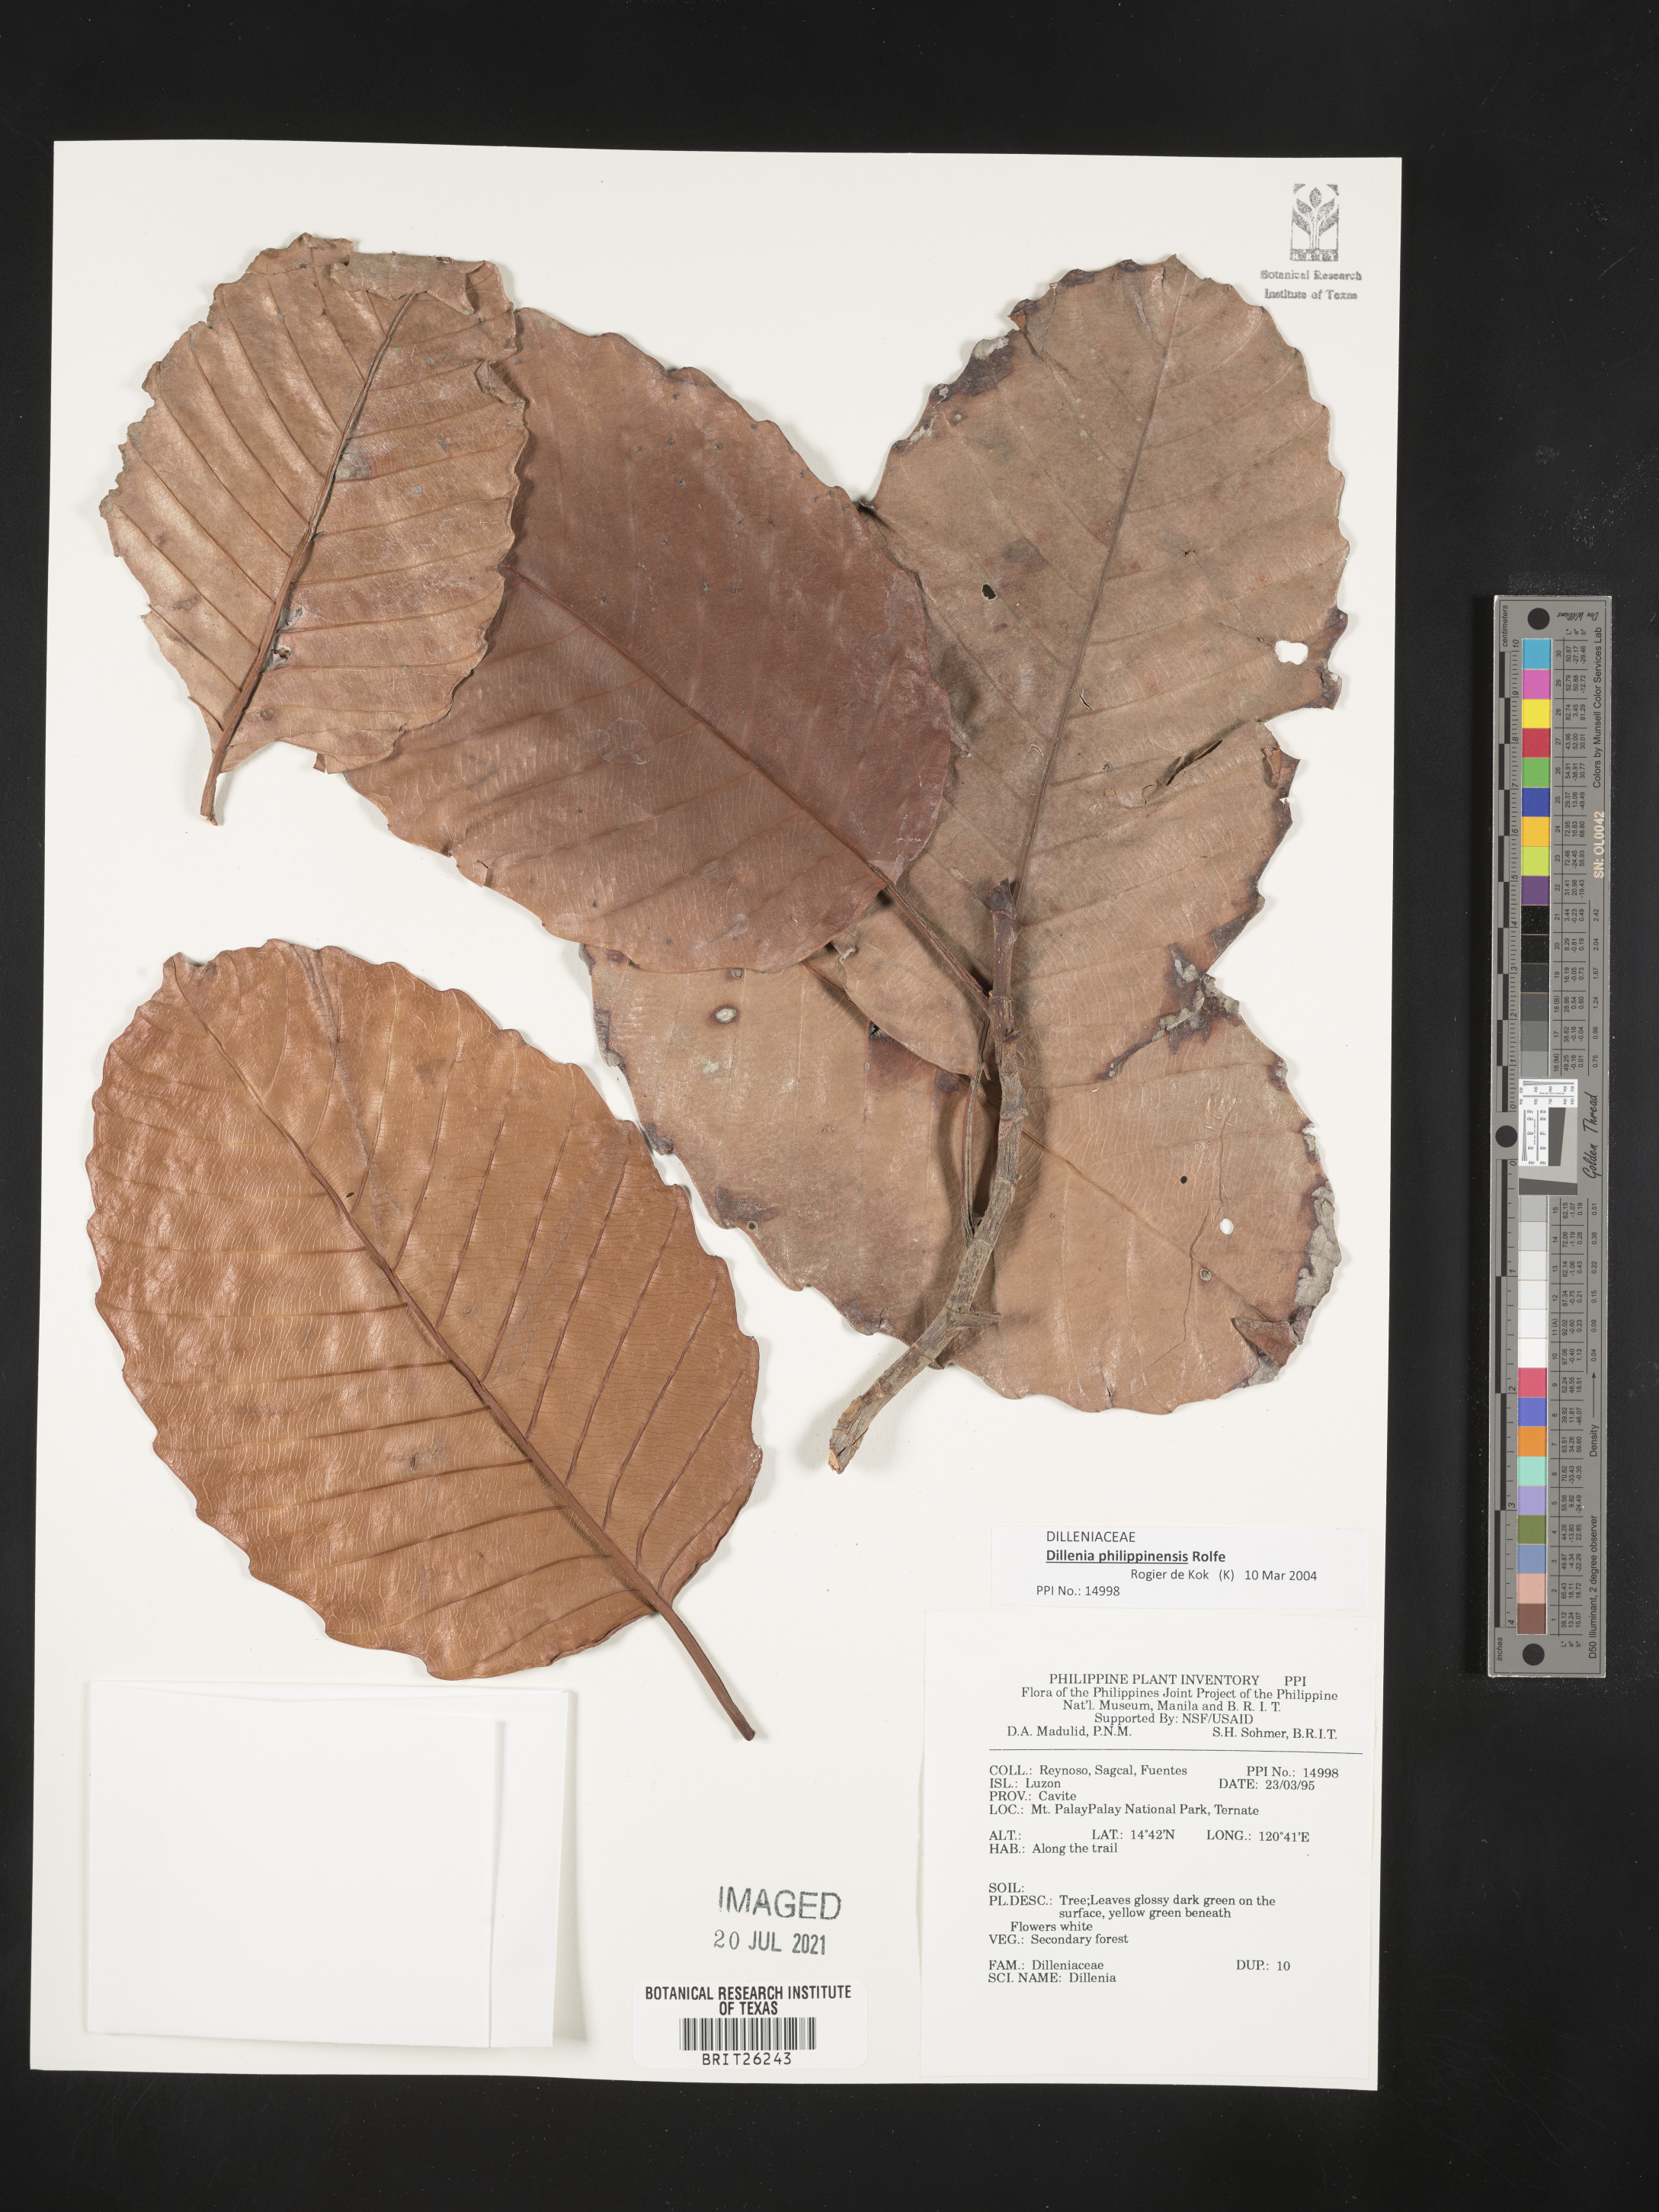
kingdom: Plantae
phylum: Tracheophyta
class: Magnoliopsida
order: Dilleniales
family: Dilleniaceae
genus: Dillenia
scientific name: Dillenia
